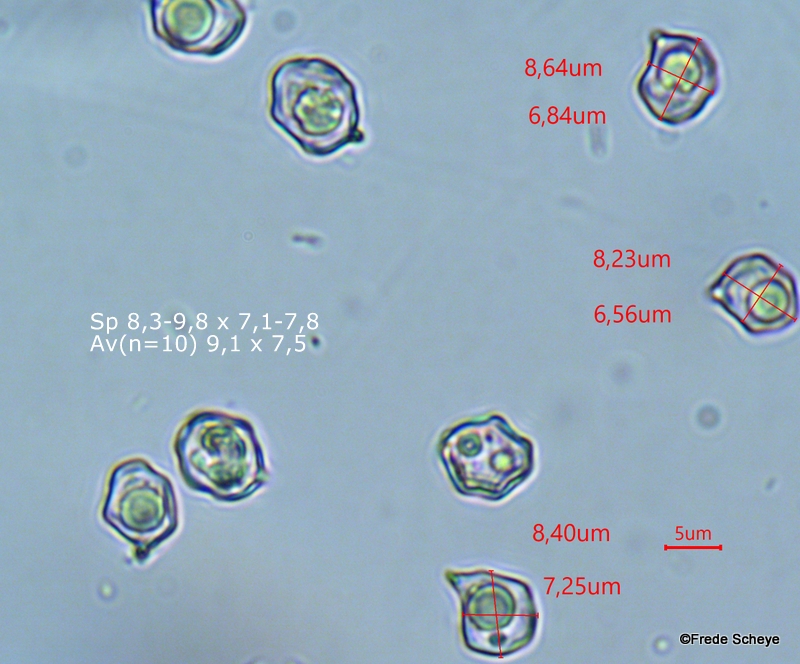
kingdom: Fungi
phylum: Basidiomycota
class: Agaricomycetes
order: Agaricales
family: Entolomataceae
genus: Entoloma
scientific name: Entoloma rhodopolium
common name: skov-rødblad
